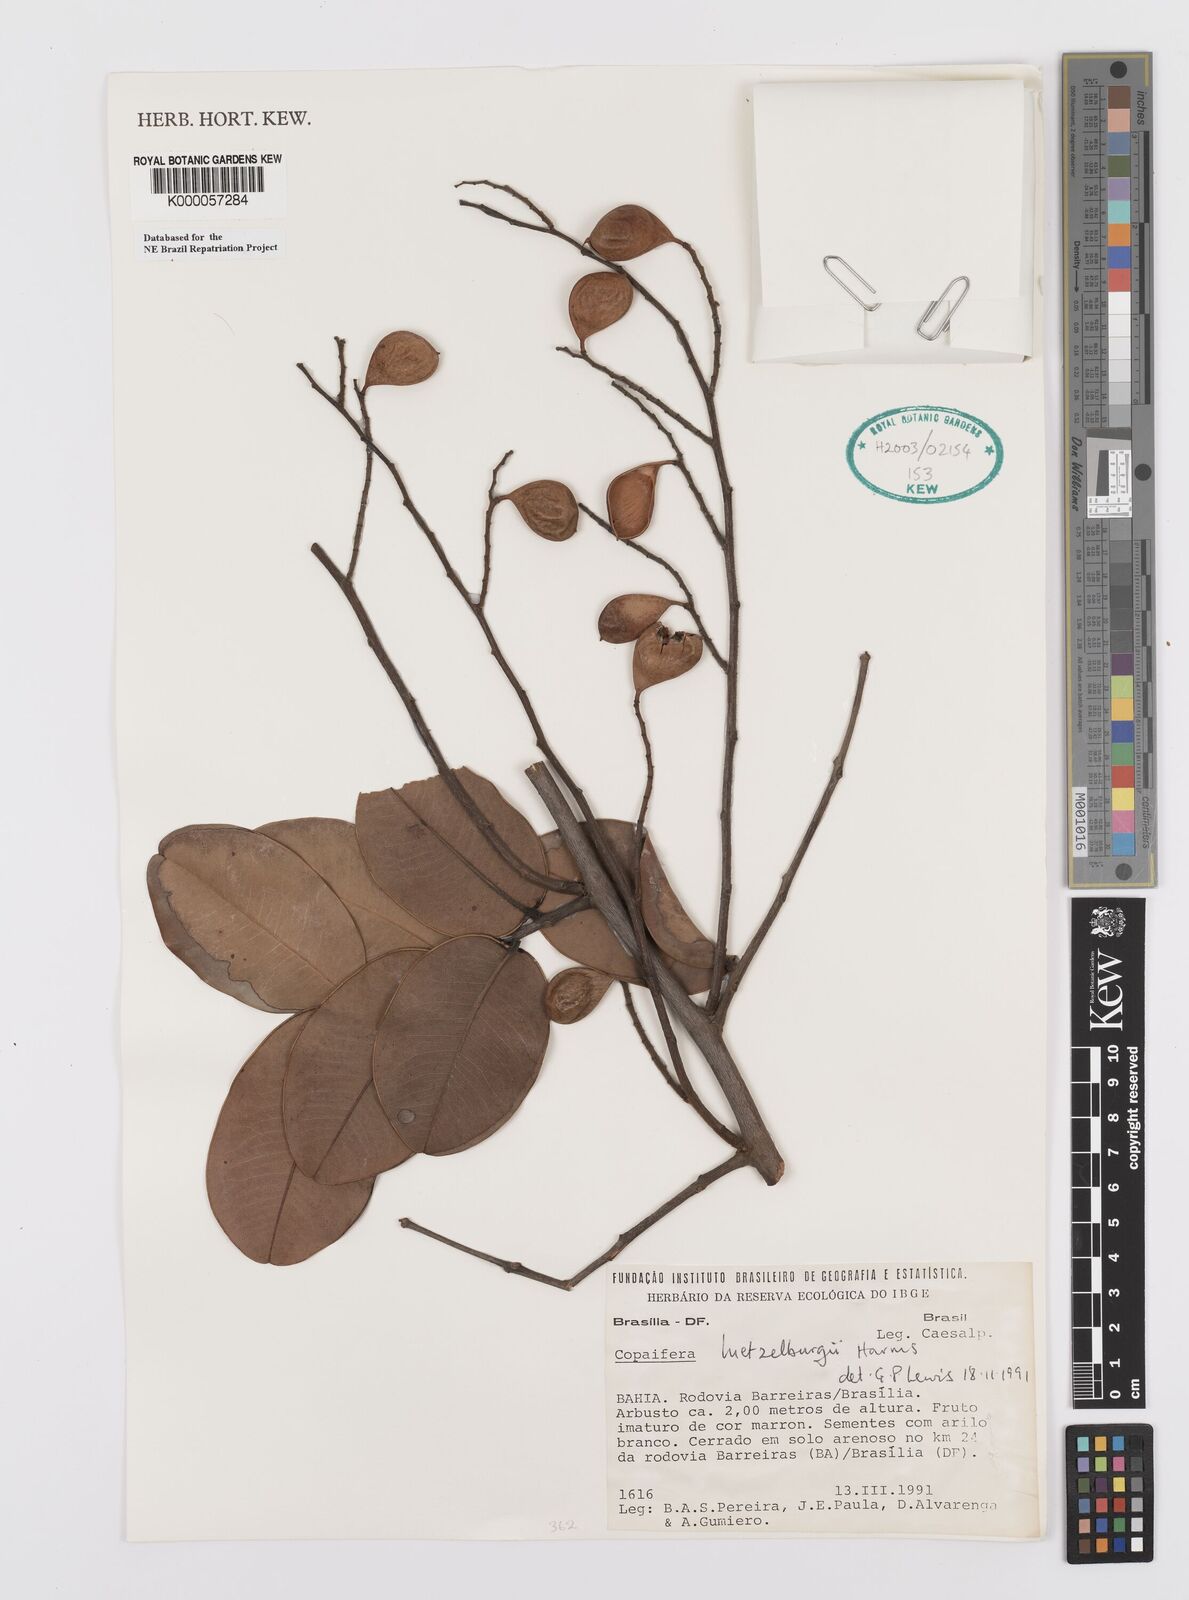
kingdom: Plantae
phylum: Tracheophyta
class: Magnoliopsida
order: Fabales
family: Fabaceae
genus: Copaifera
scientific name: Copaifera luetzelburgii
